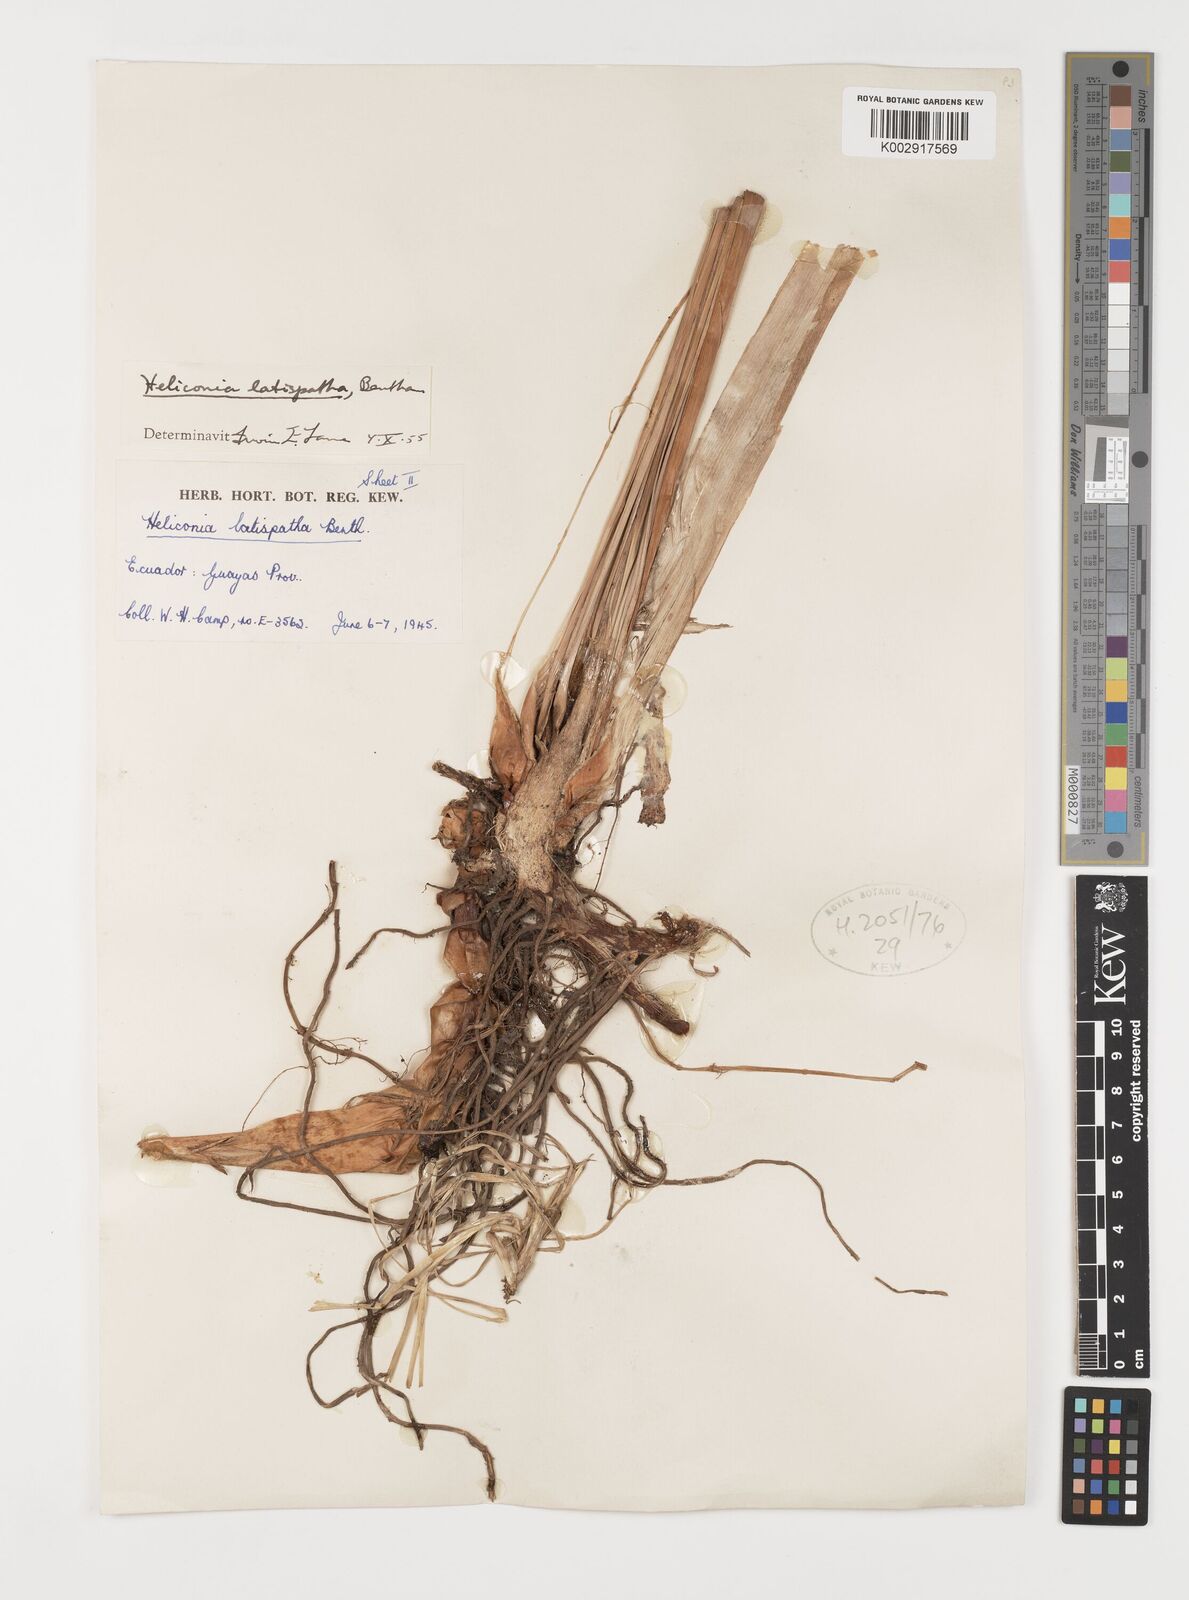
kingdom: Plantae
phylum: Tracheophyta
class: Liliopsida
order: Zingiberales
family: Heliconiaceae
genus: Heliconia
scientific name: Heliconia latispatha
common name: Expanded lobsterclaw
